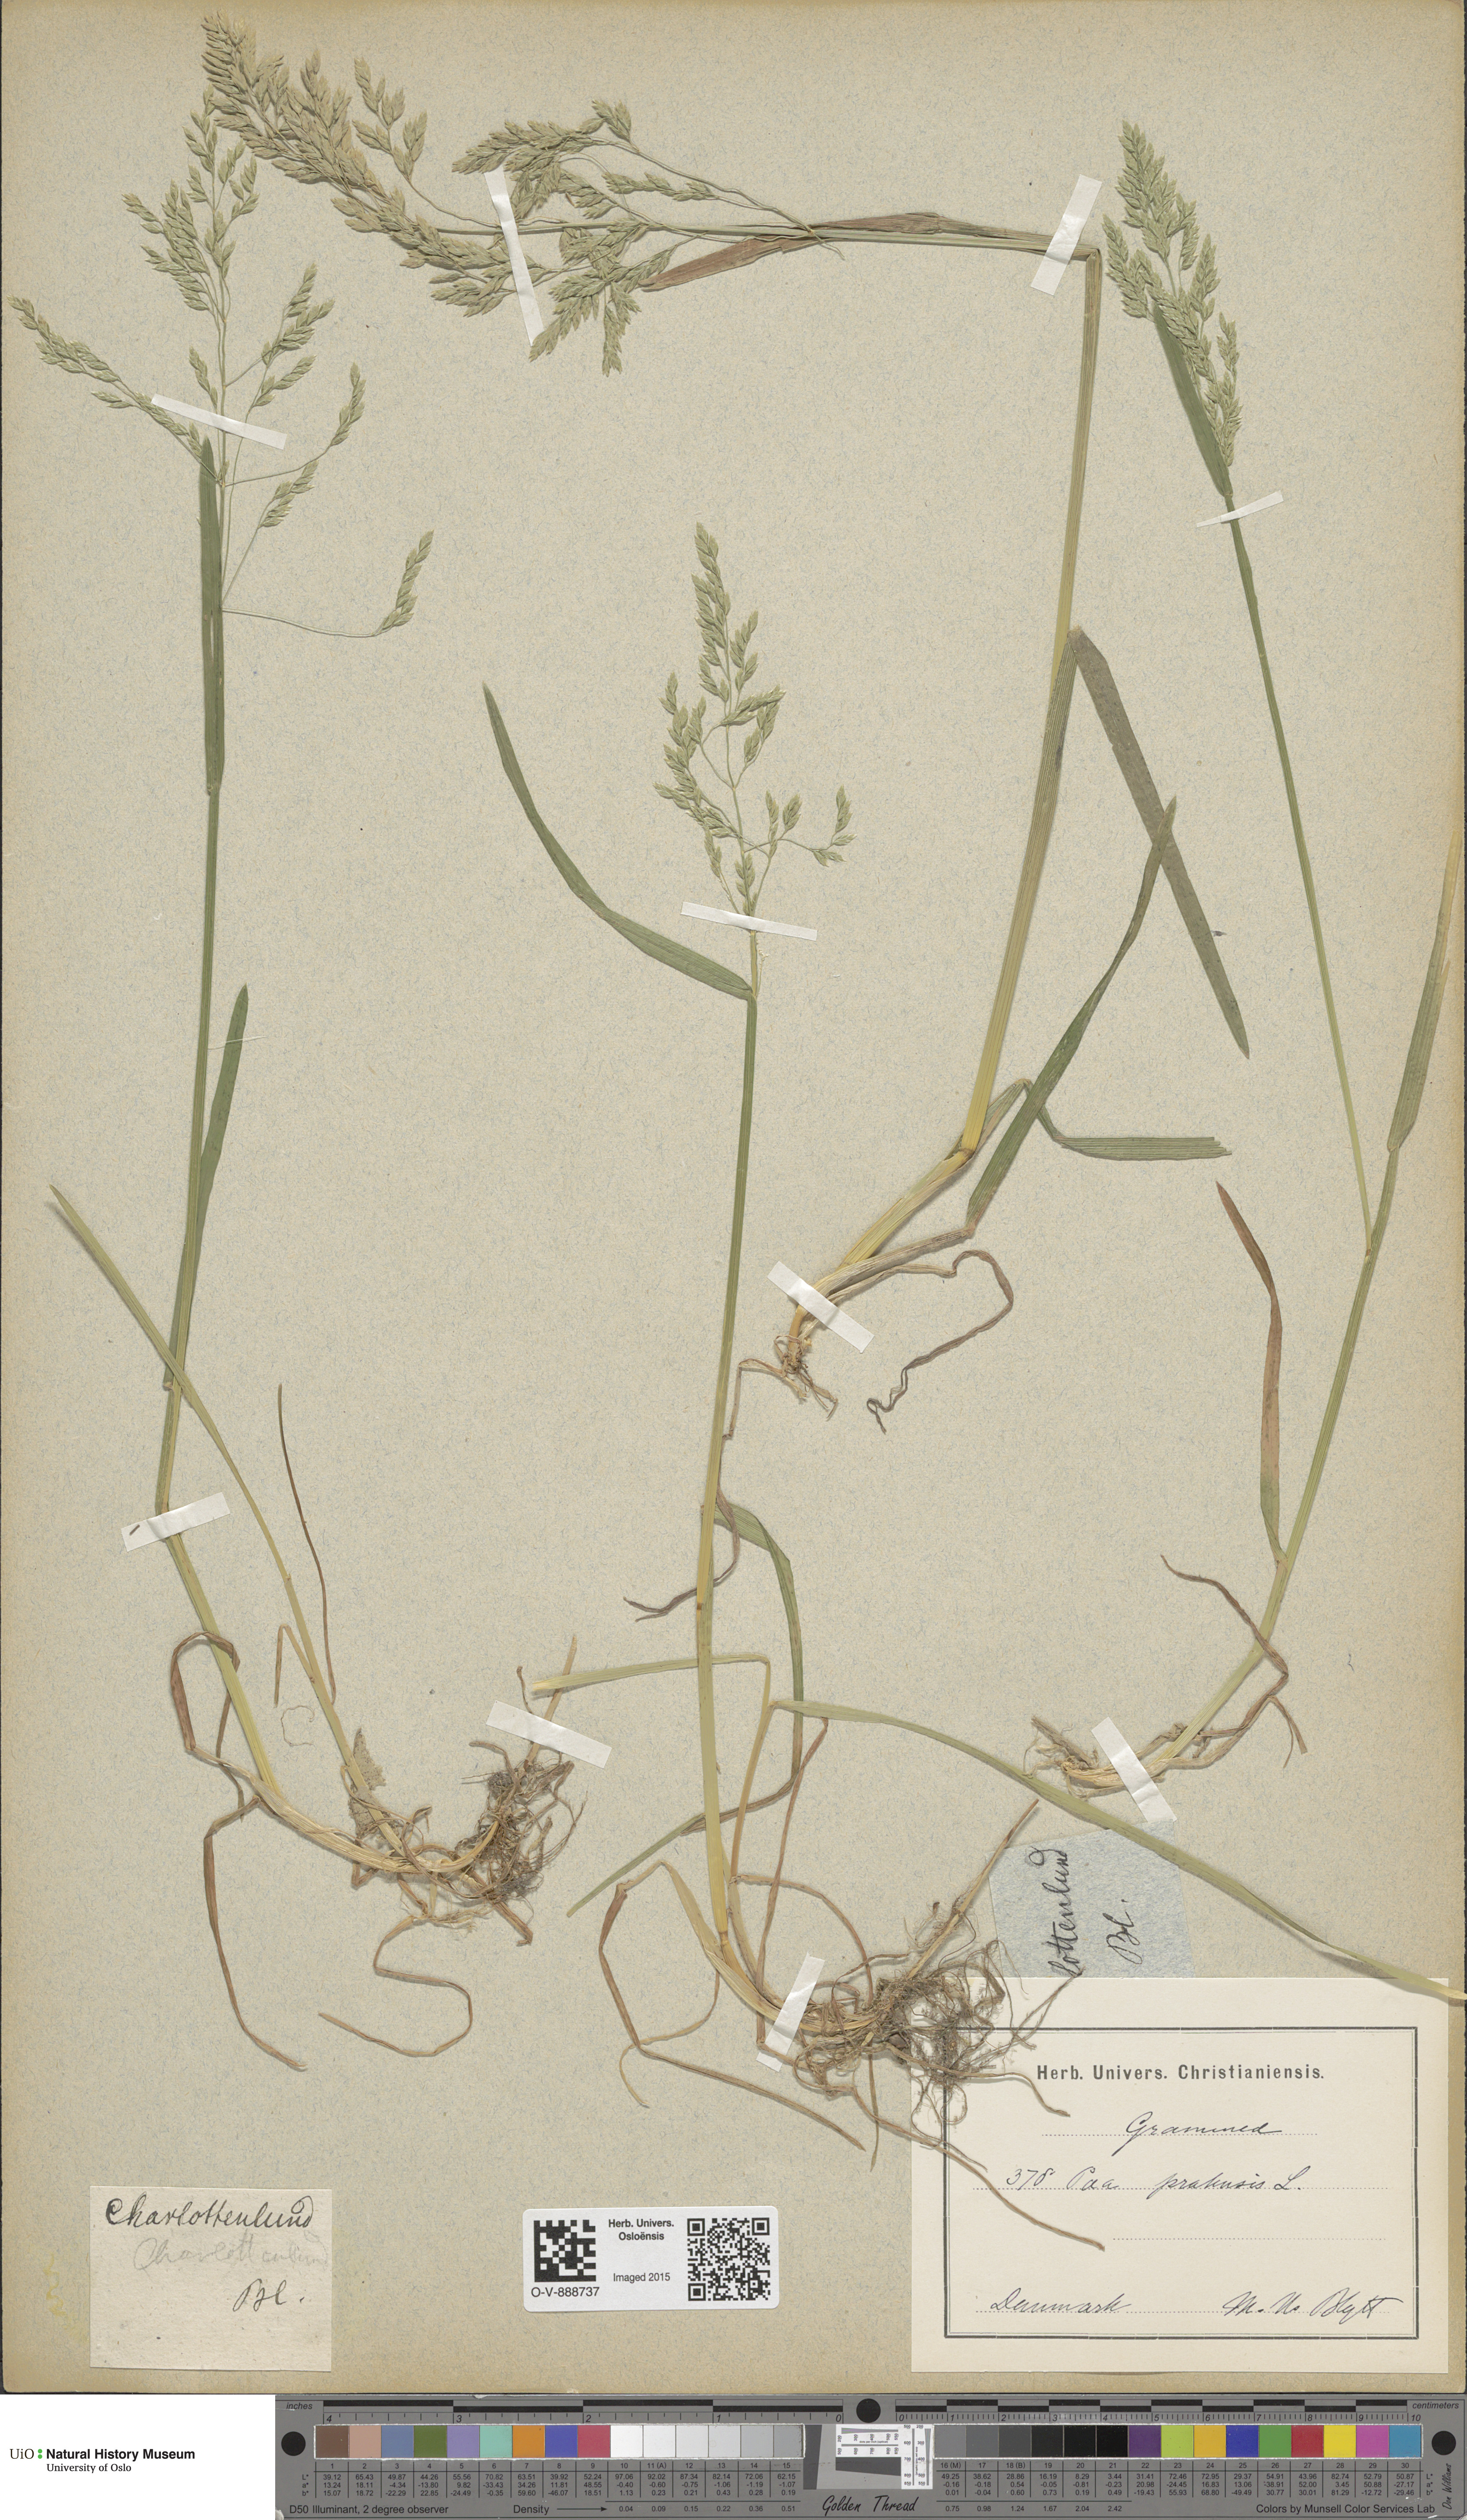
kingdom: Plantae
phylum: Tracheophyta
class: Liliopsida
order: Poales
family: Poaceae
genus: Poa
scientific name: Poa pratensis
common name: Kentucky bluegrass
